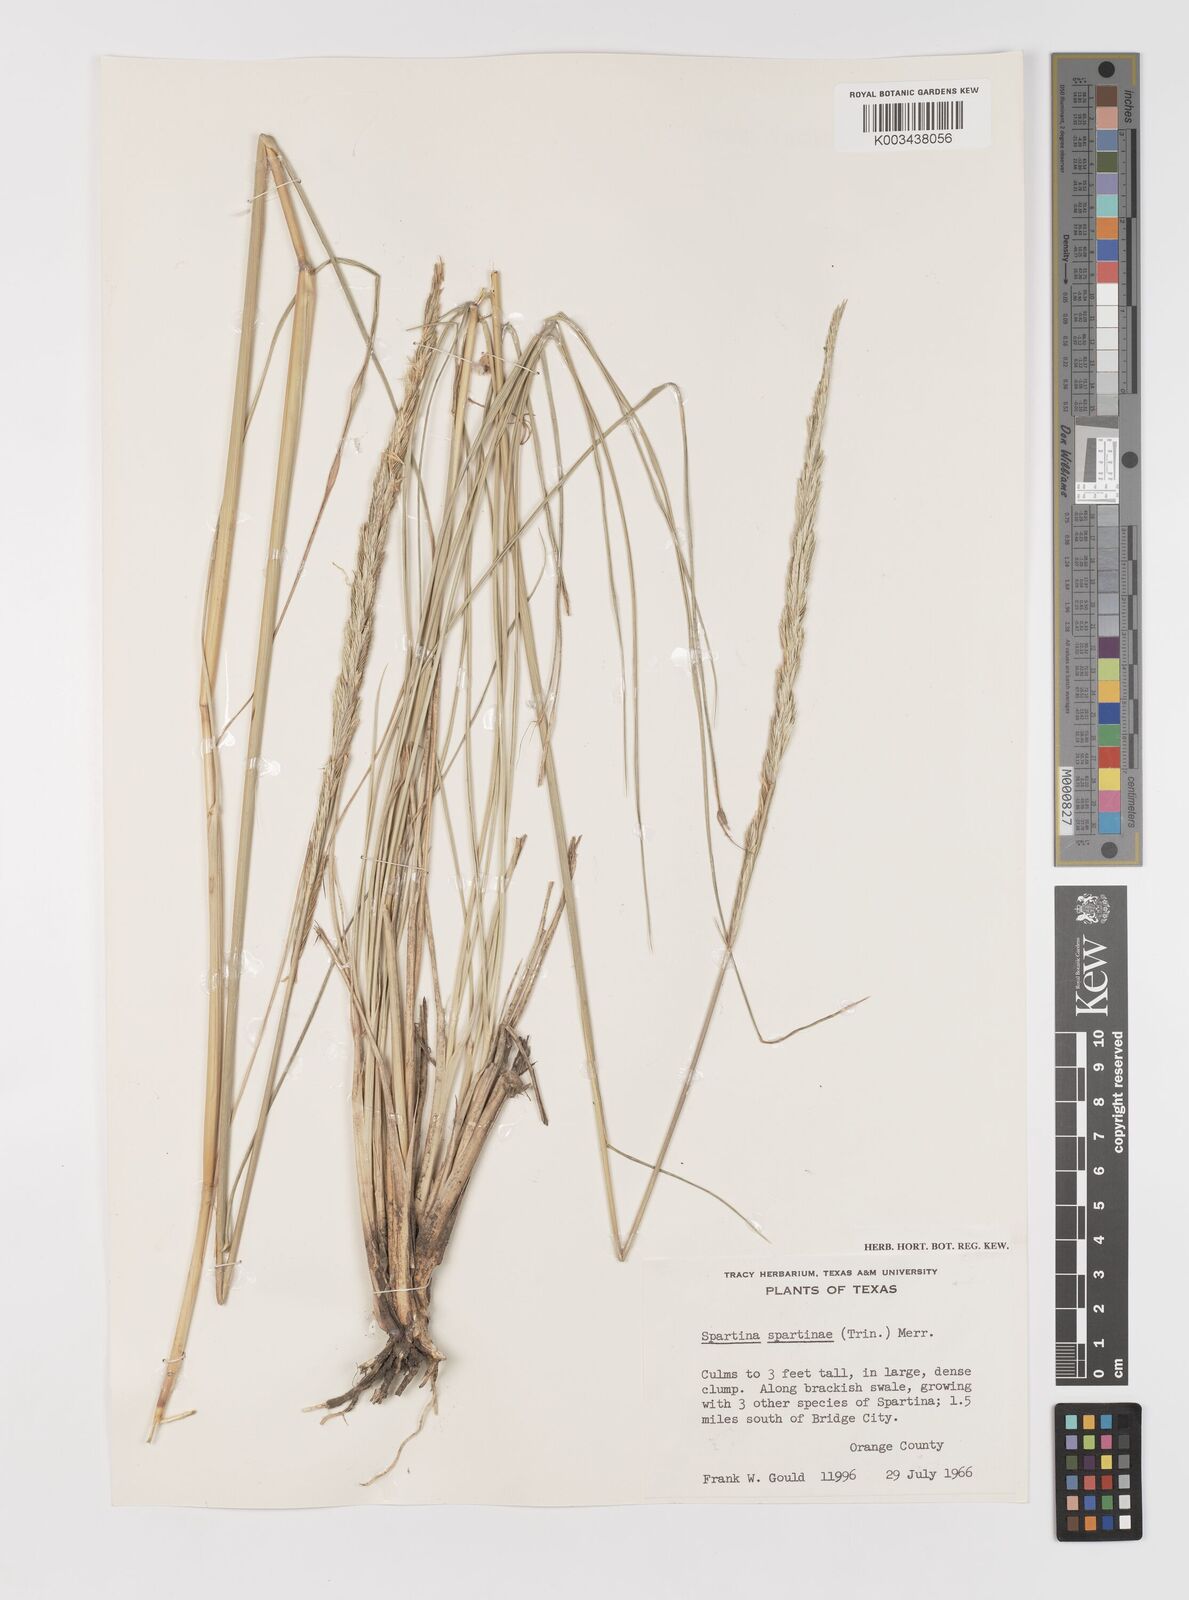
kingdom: Plantae
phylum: Tracheophyta
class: Liliopsida
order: Poales
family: Poaceae
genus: Sporobolus
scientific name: Sporobolus spartinae
